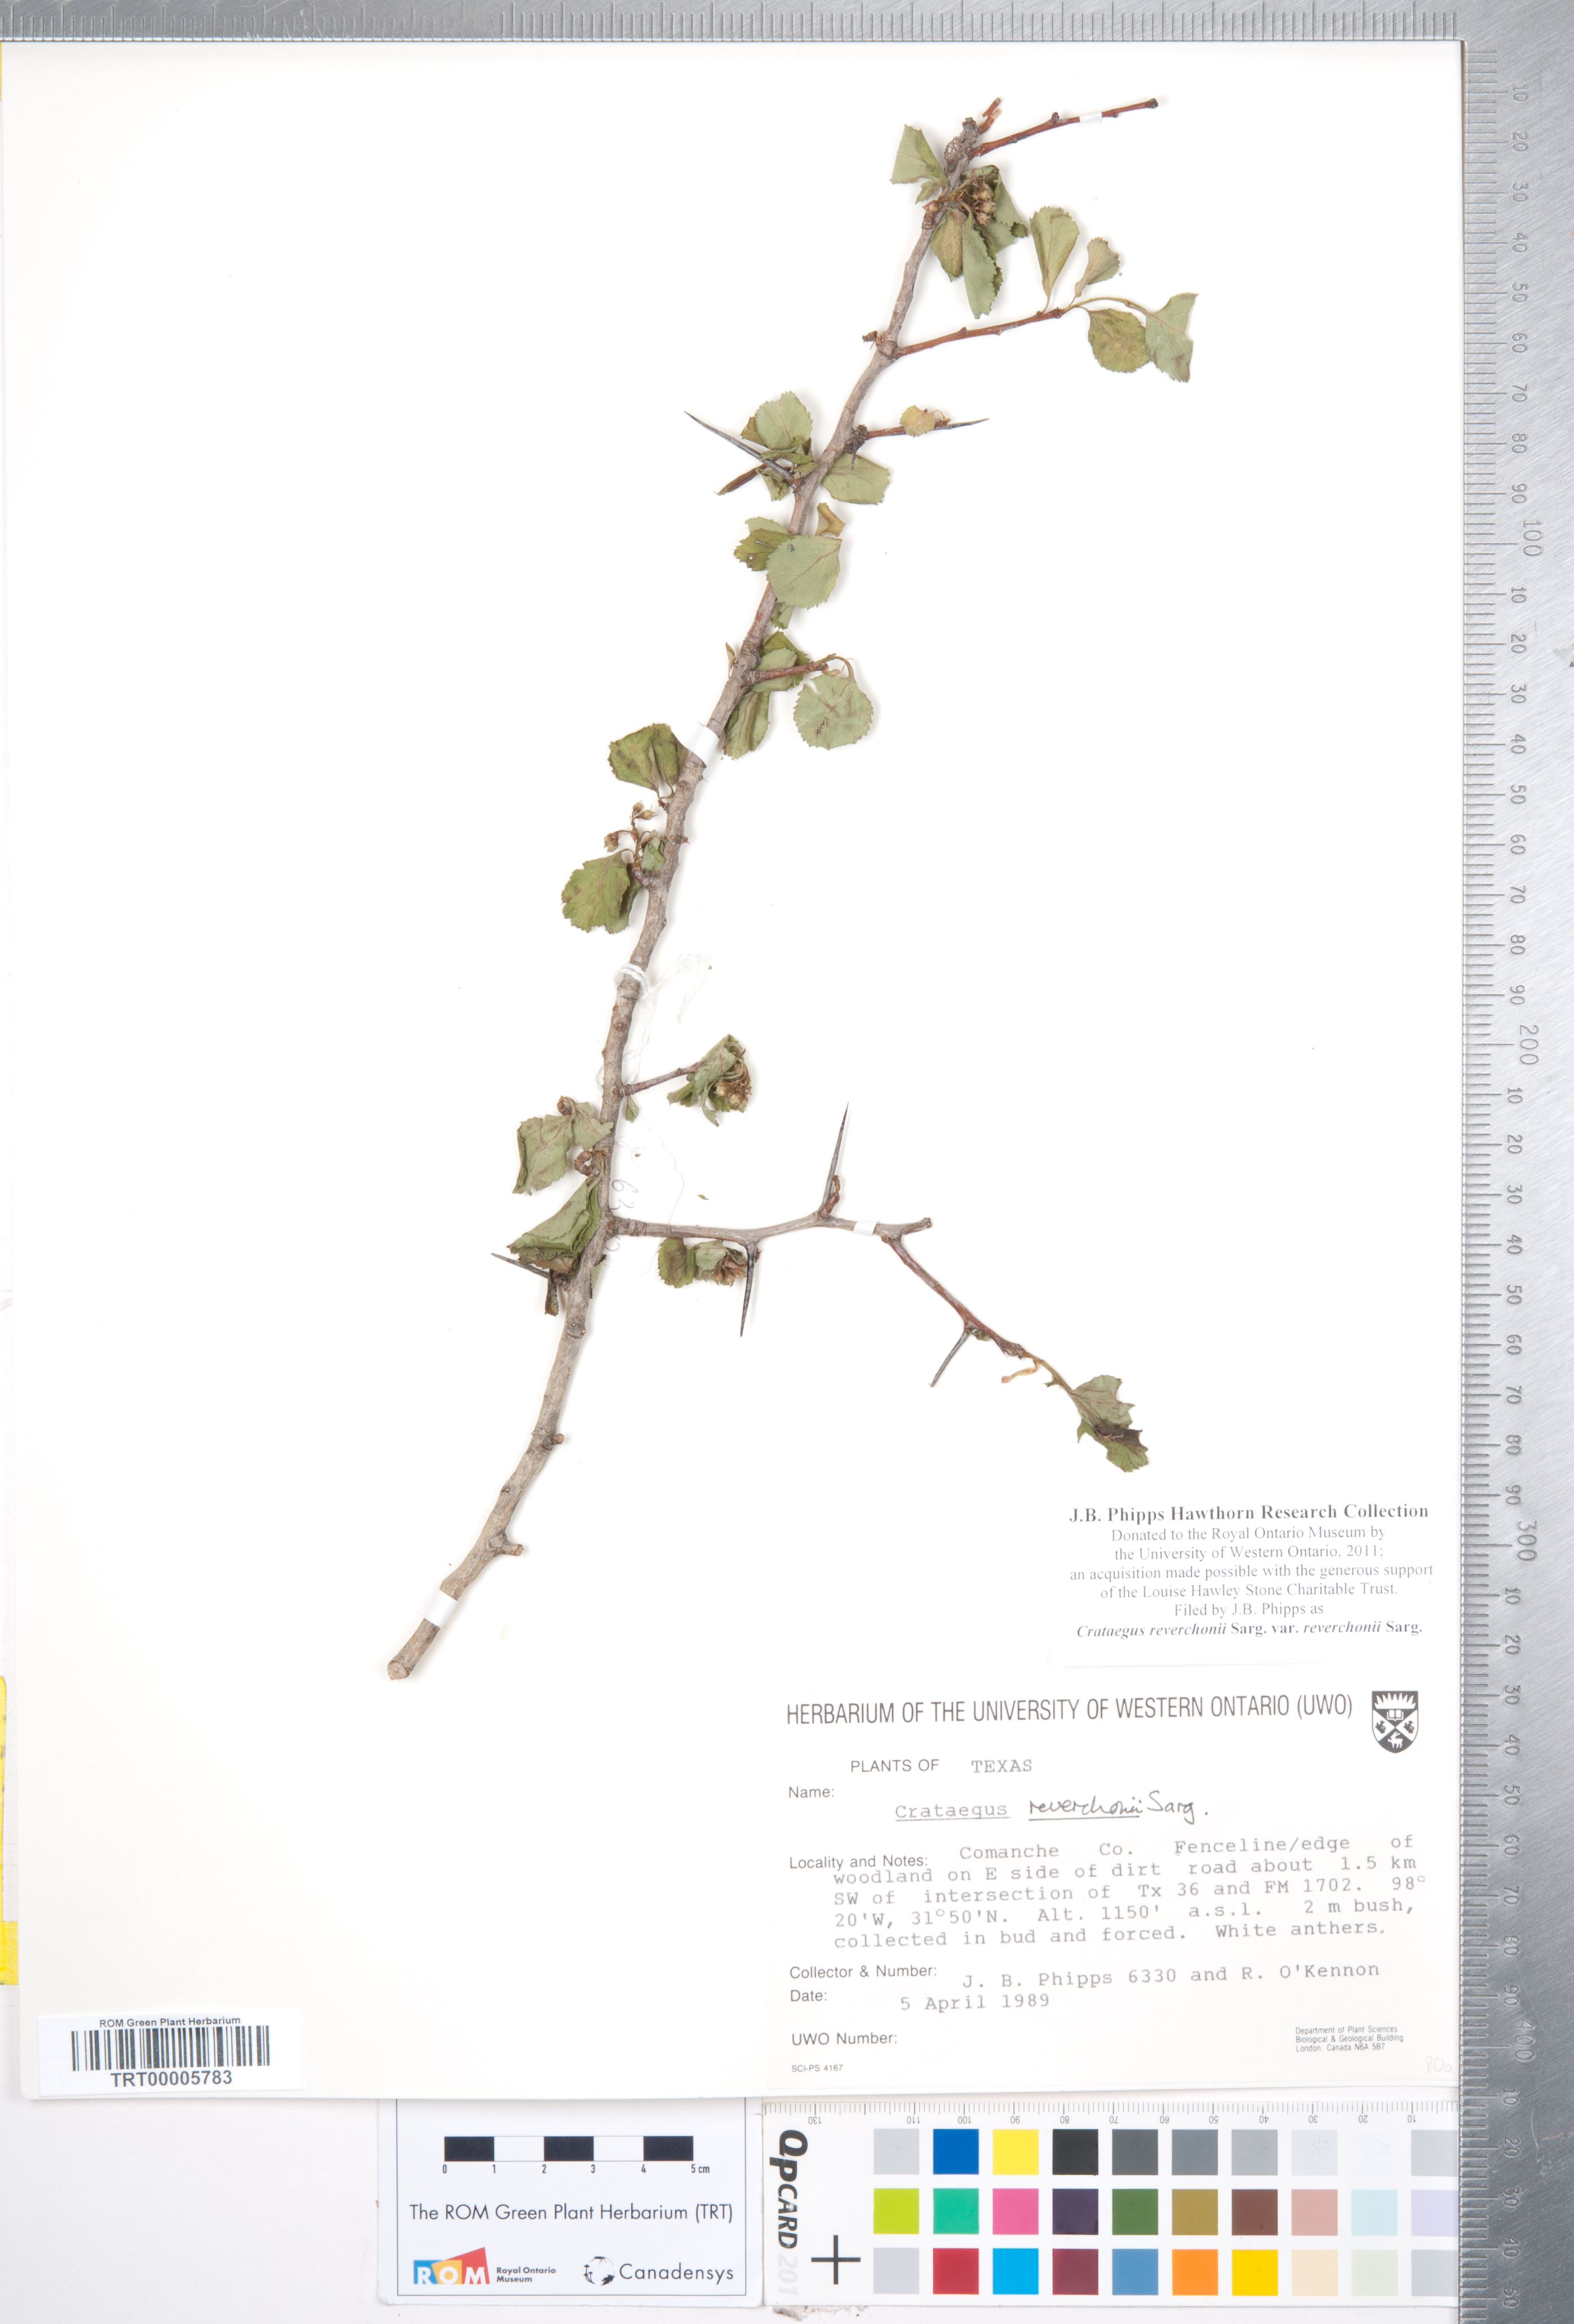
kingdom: Plantae
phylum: Tracheophyta
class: Magnoliopsida
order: Rosales
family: Rosaceae
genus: Crataegus
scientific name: Crataegus reverchonii
